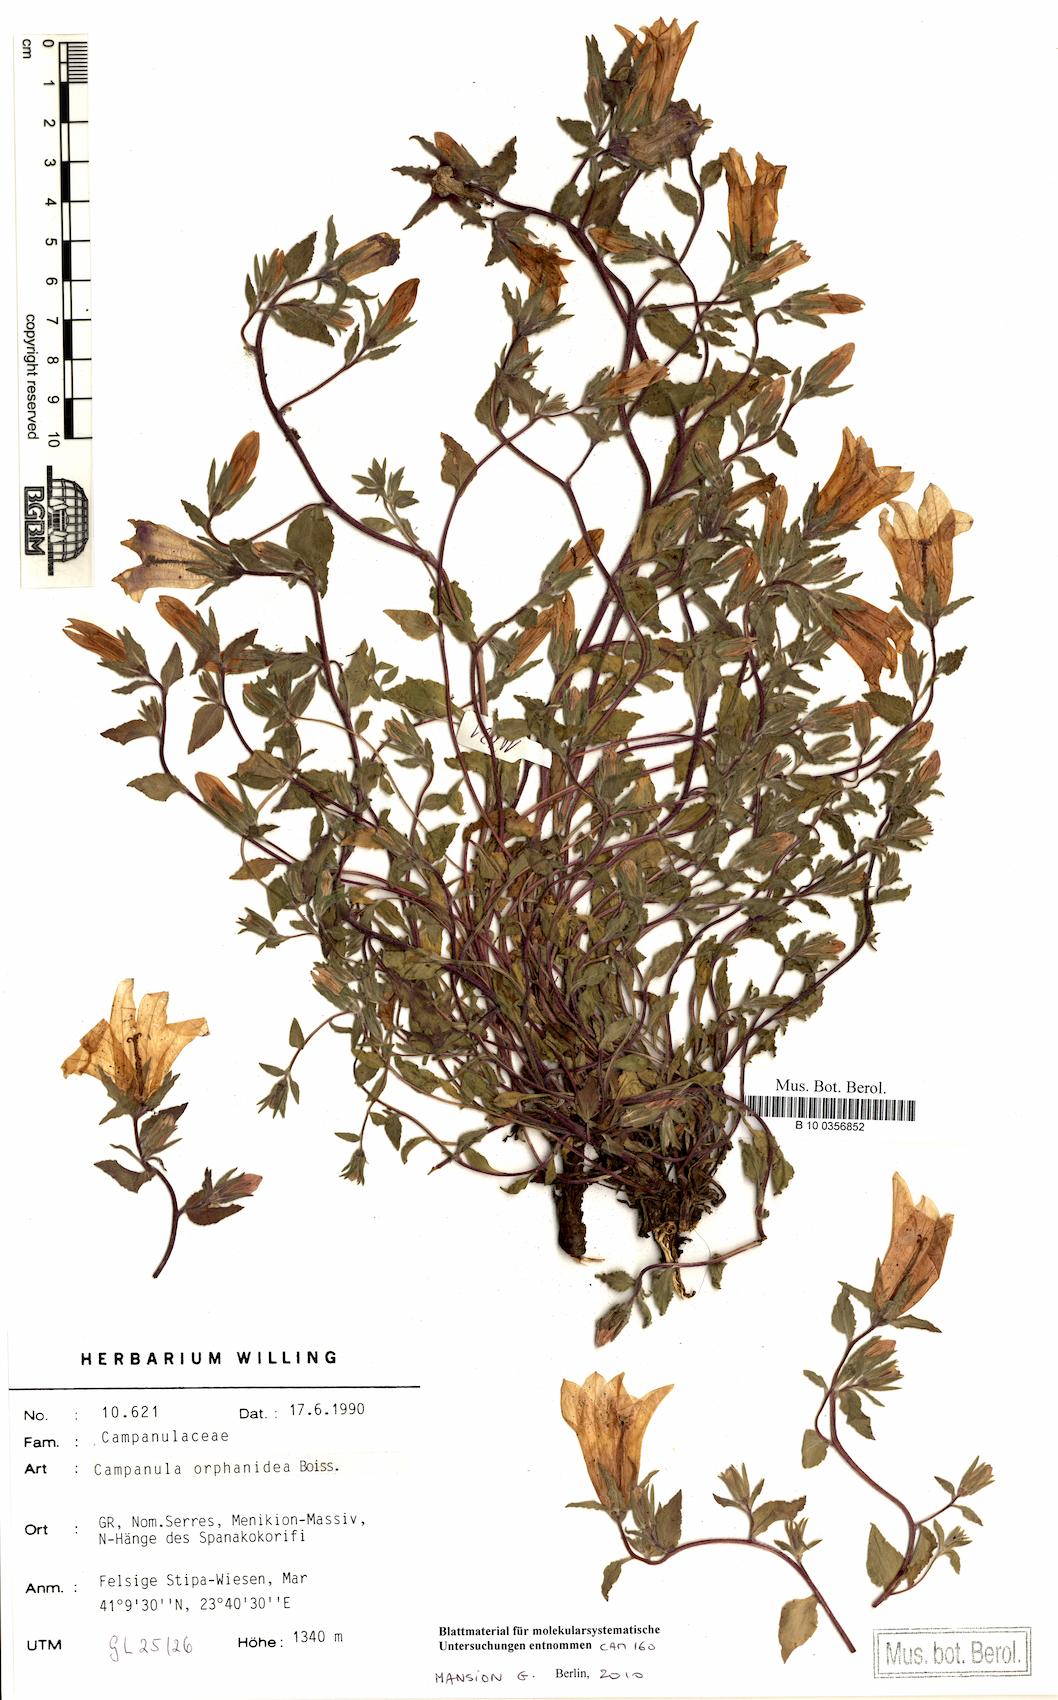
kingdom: Plantae
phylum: Tracheophyta
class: Magnoliopsida
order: Asterales
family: Campanulaceae
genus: Campanula
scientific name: Campanula orphanidea
